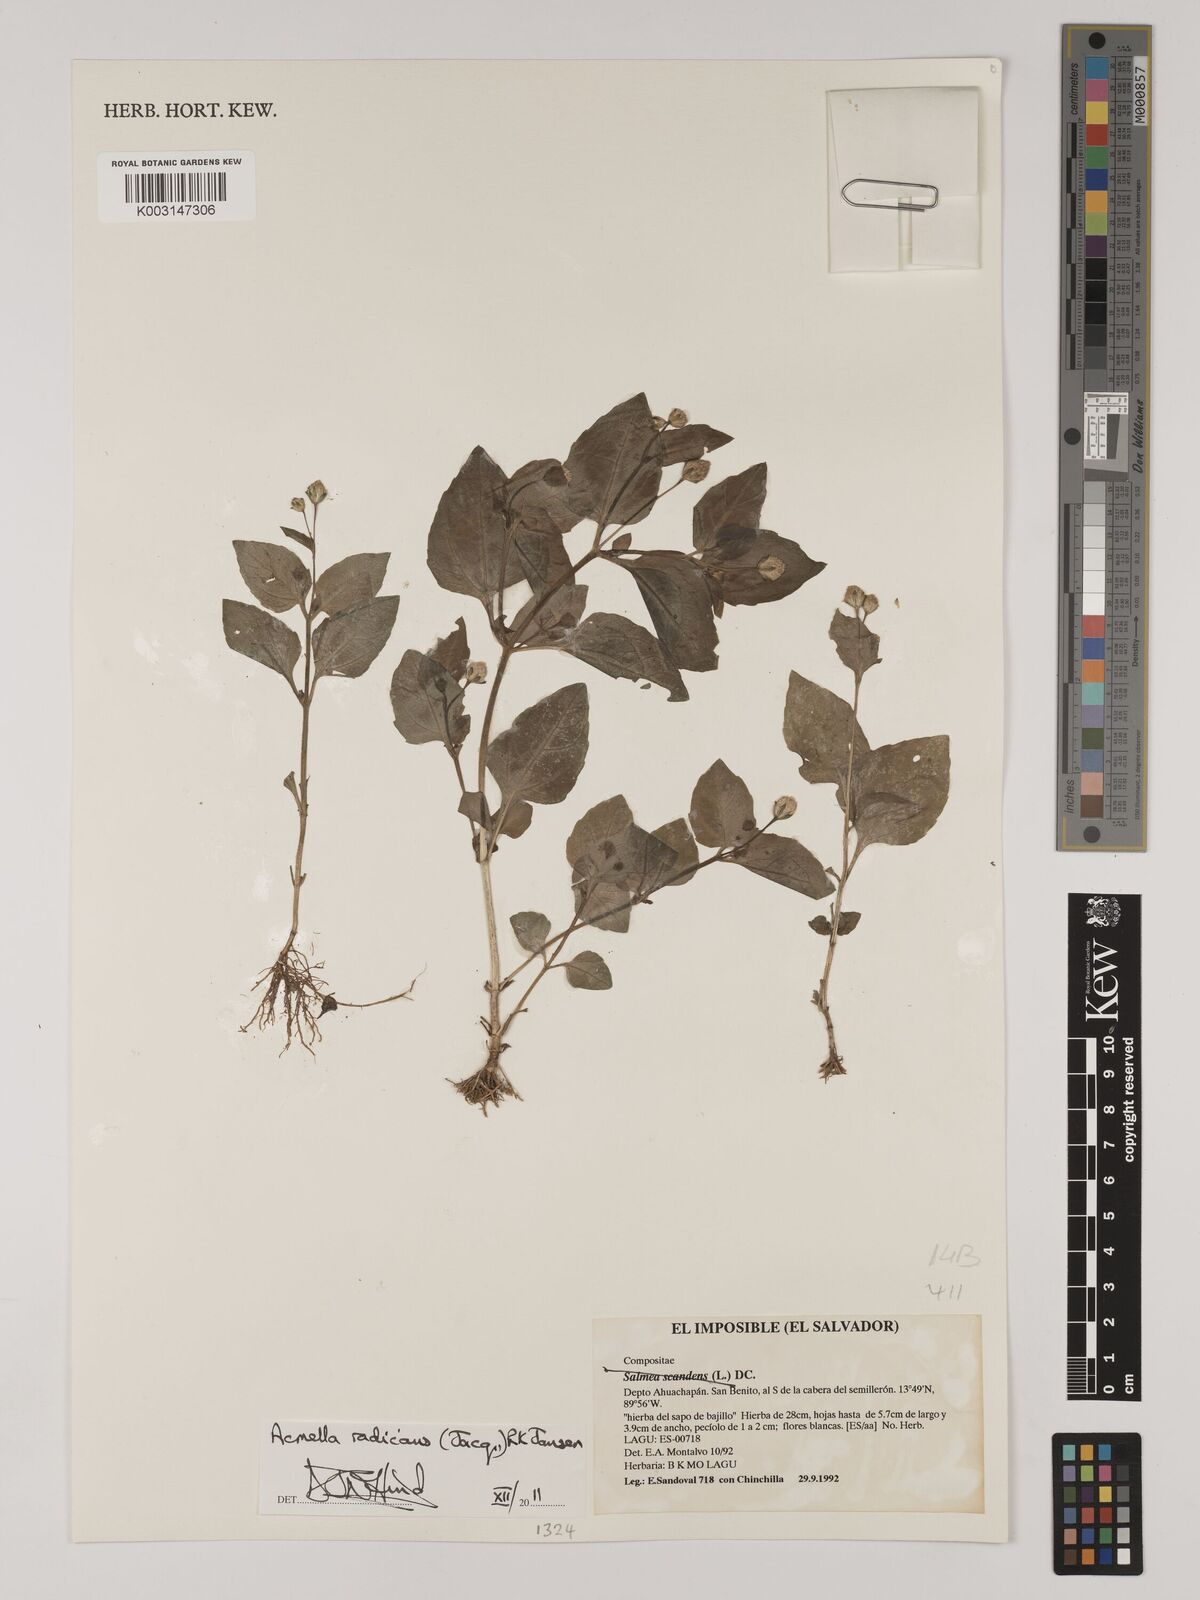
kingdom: Plantae
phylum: Tracheophyta
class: Magnoliopsida
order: Asterales
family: Asteraceae
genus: Acmella
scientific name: Acmella radicans
